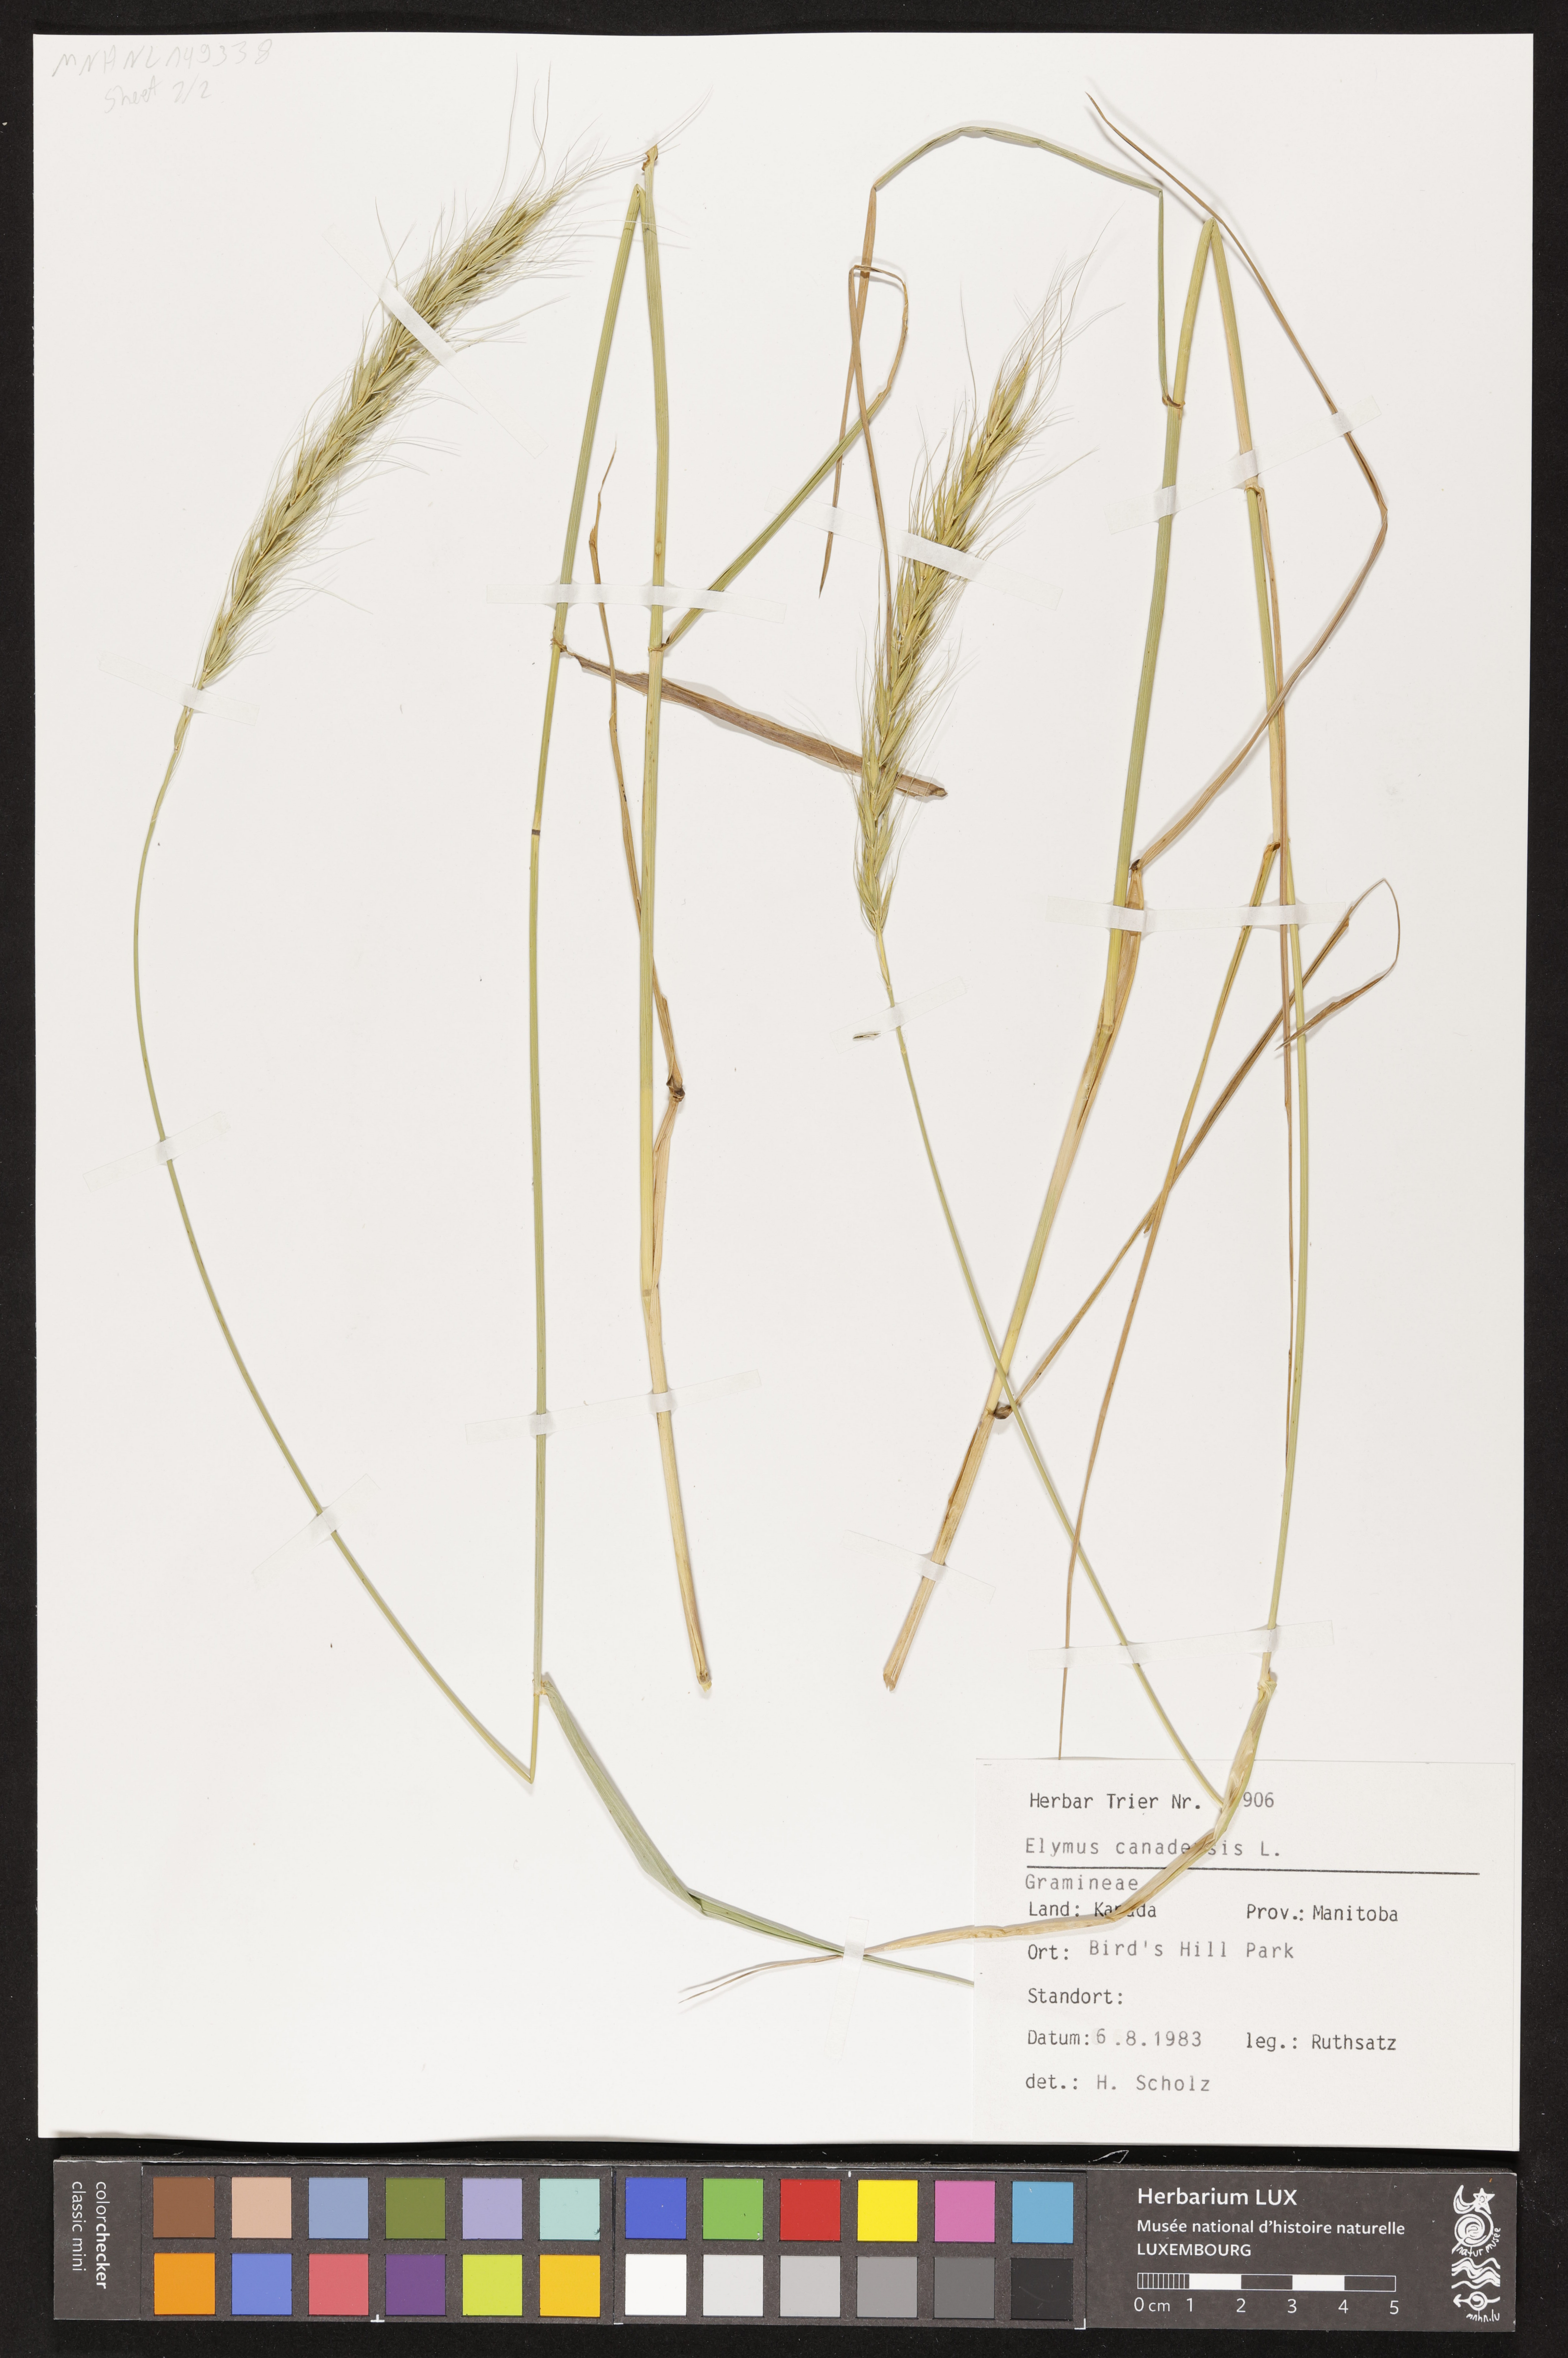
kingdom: Plantae
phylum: Tracheophyta
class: Liliopsida
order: Poales
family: Poaceae
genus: Elymus
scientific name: Elymus canadensis
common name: Canada wild rye
